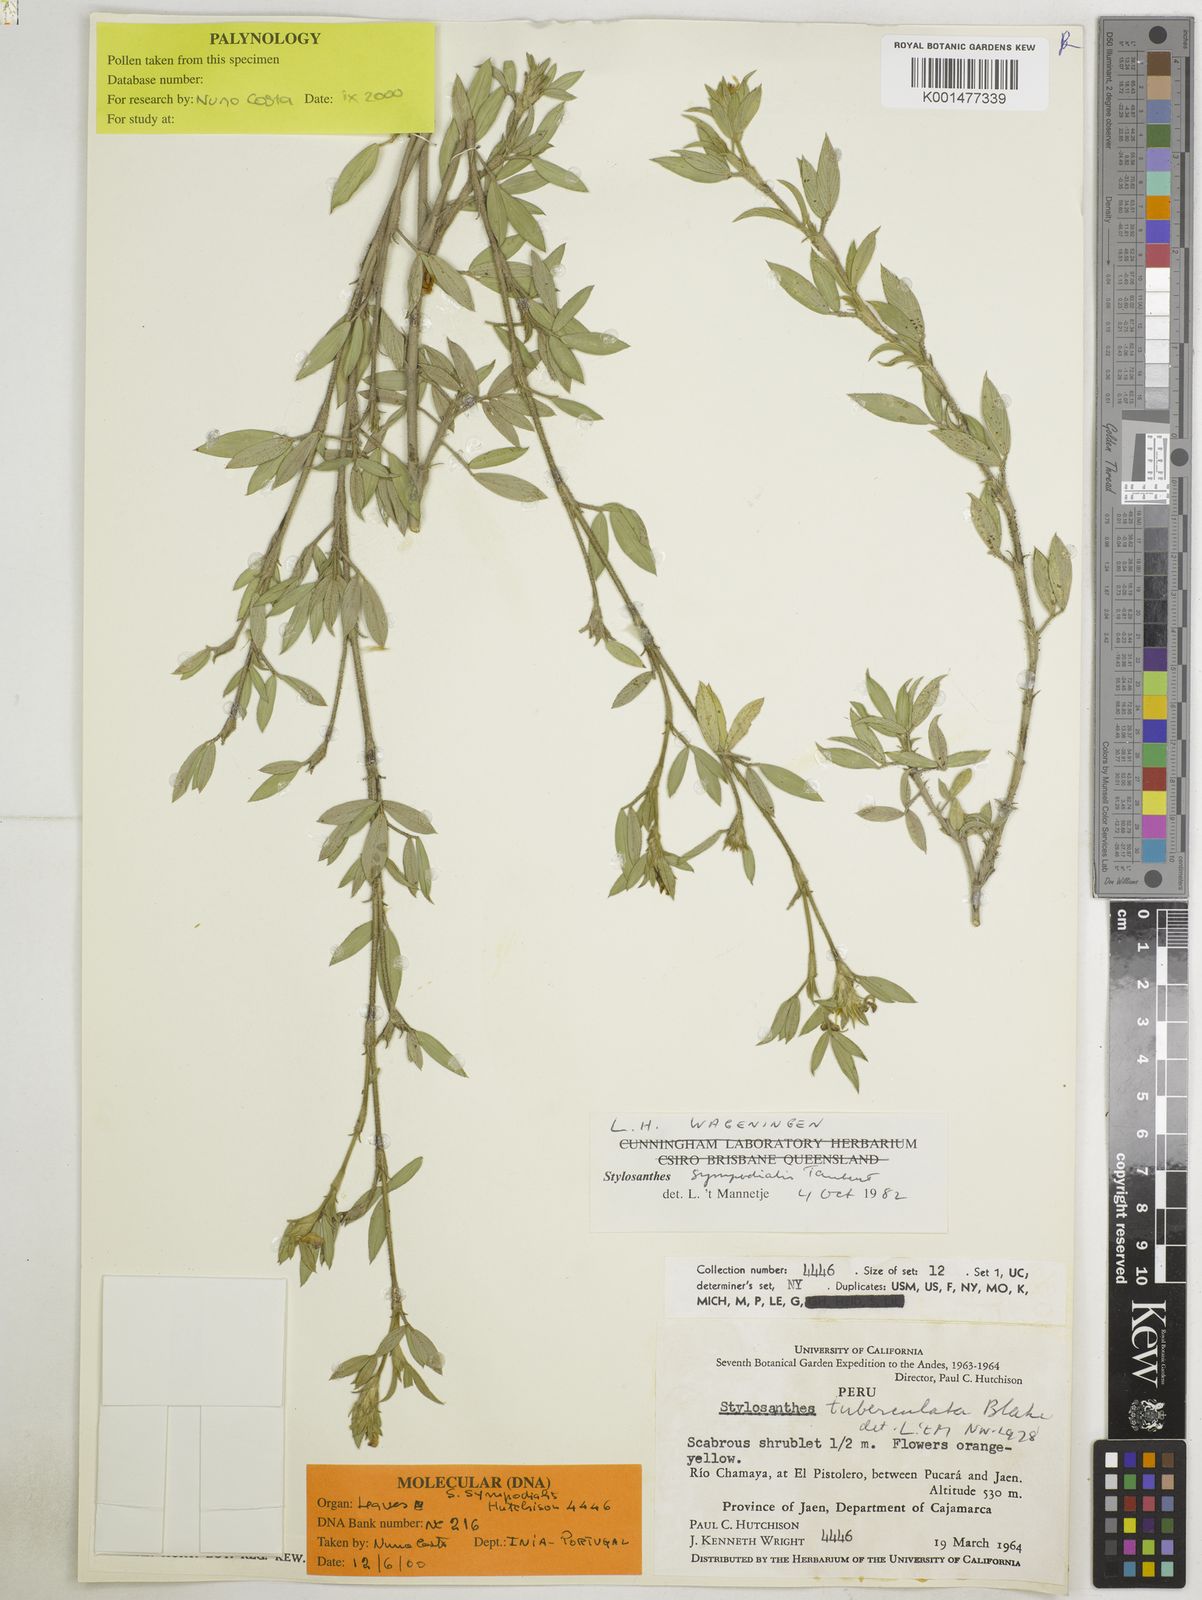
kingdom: Plantae
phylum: Tracheophyta
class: Magnoliopsida
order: Fabales
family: Fabaceae
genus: Stylosanthes
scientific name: Stylosanthes sympodialis
